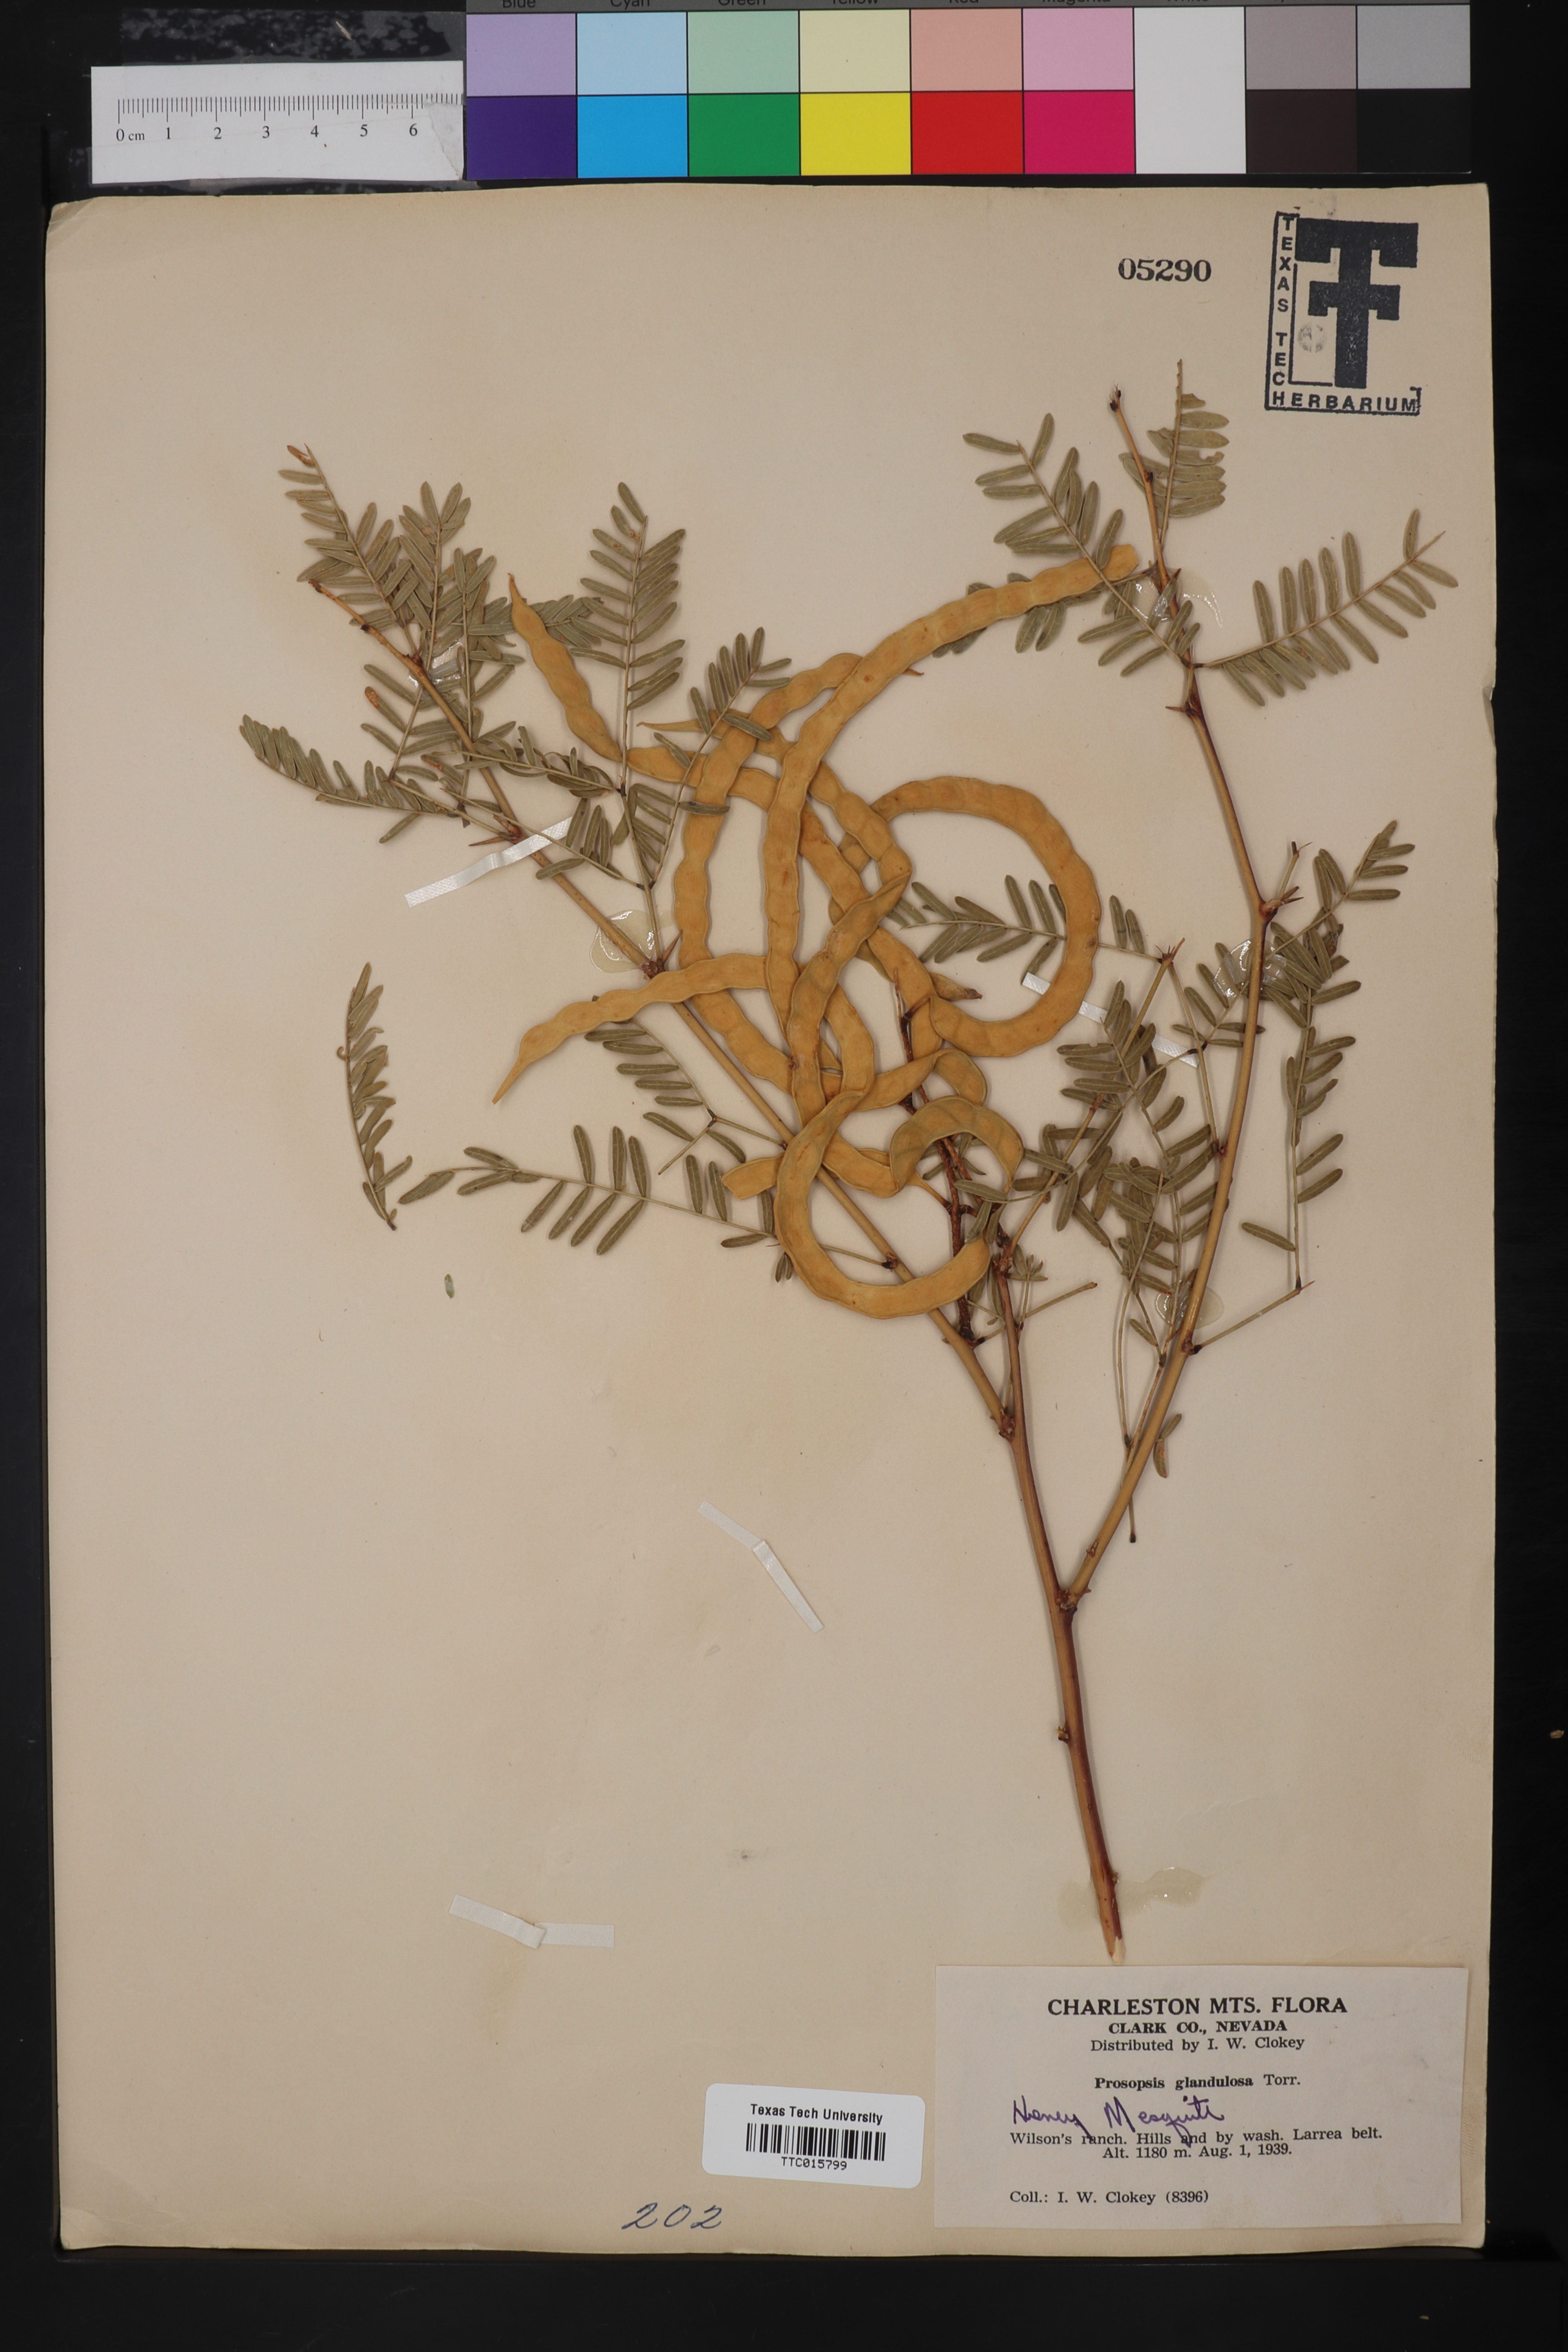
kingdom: Plantae
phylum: Tracheophyta
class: Magnoliopsida
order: Fabales
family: Fabaceae
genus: Prosopis
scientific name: Prosopis glandulosa
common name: Honey mesquite
